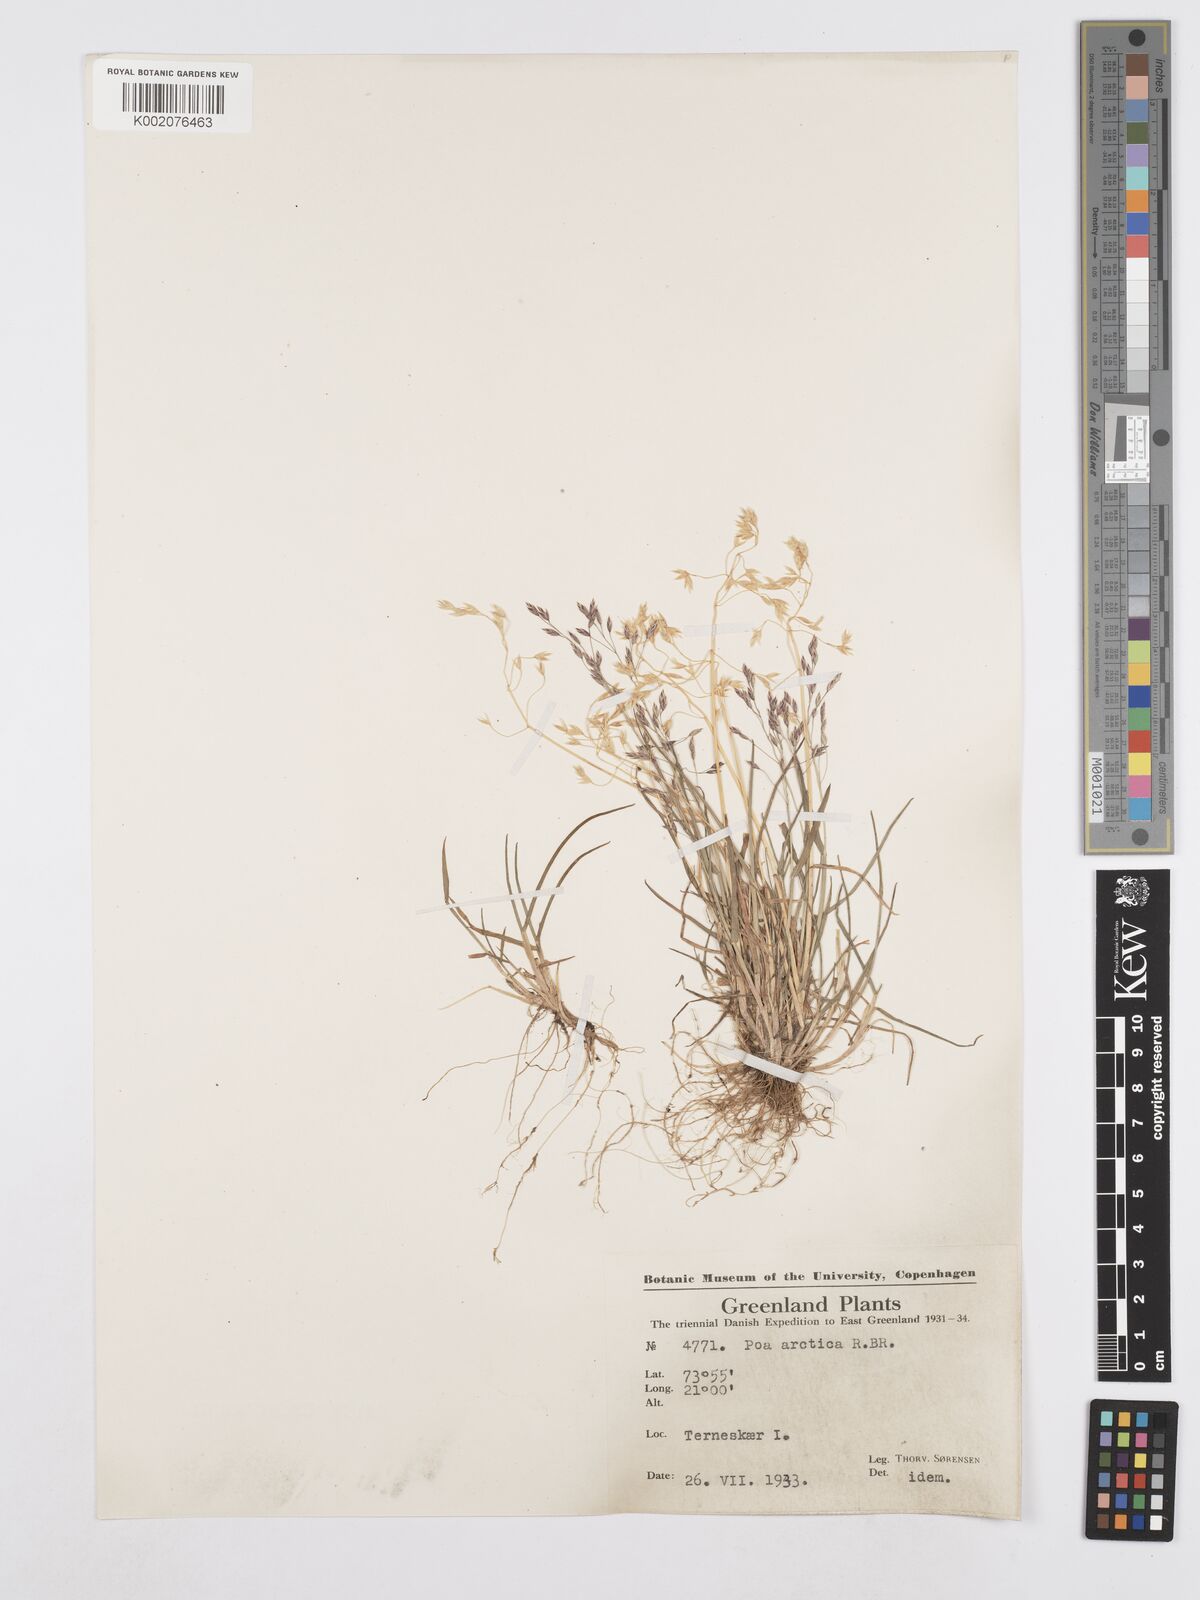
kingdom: Plantae
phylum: Tracheophyta
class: Liliopsida
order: Poales
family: Poaceae
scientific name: Poaceae
